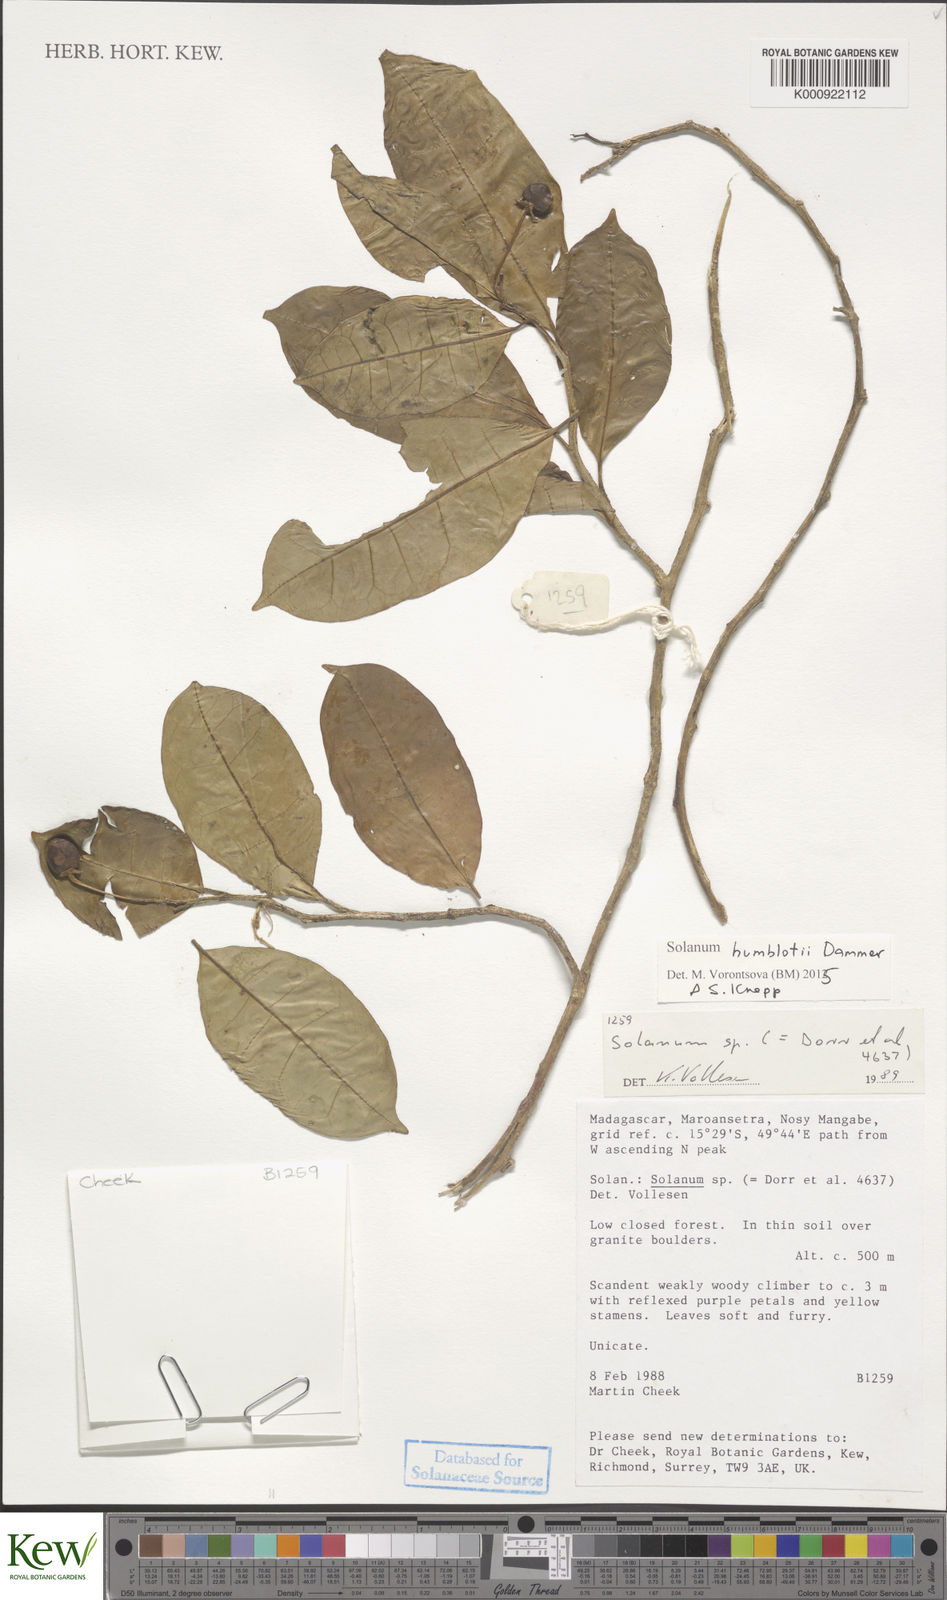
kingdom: Plantae
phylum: Tracheophyta
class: Magnoliopsida
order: Solanales
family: Solanaceae
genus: Solanum
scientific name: Solanum
